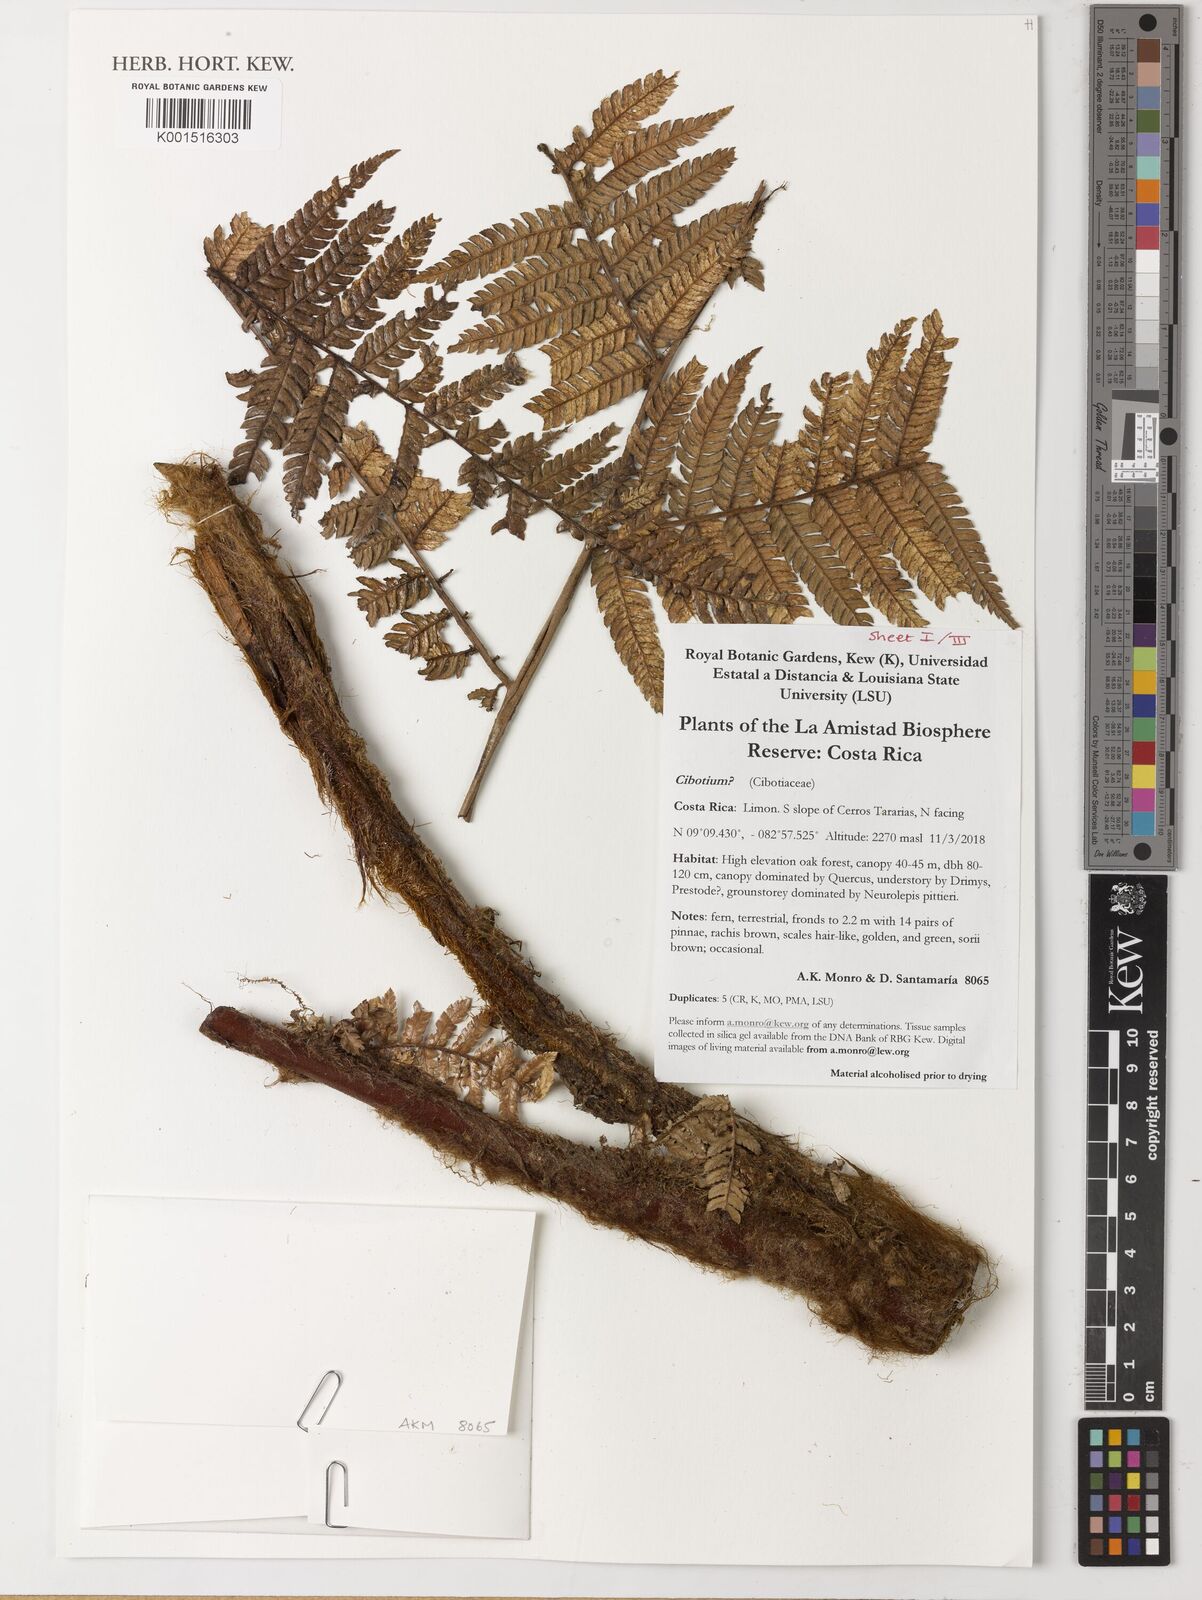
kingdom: Plantae
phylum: Tracheophyta
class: Polypodiopsida
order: Cyatheales
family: Cibotiaceae
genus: Cibotium
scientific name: Cibotium
